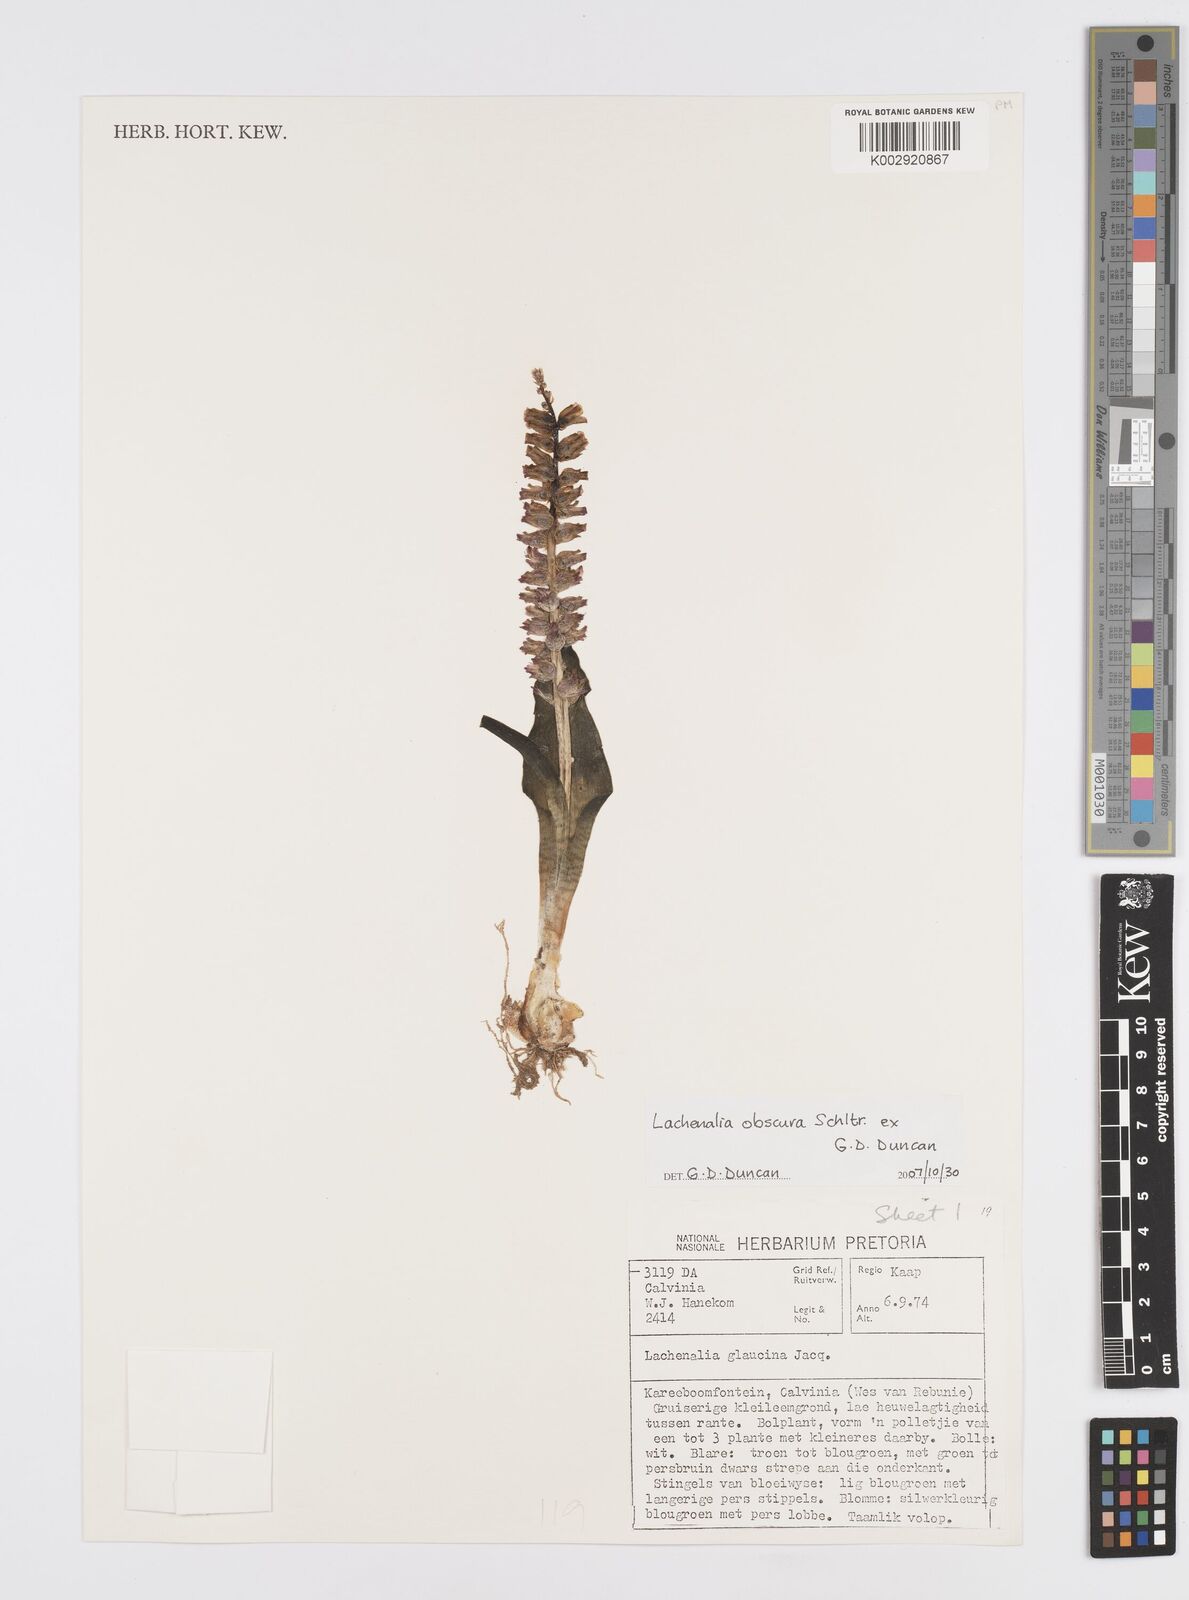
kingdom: Plantae
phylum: Tracheophyta
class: Liliopsida
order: Asparagales
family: Asparagaceae
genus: Lachenalia
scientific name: Lachenalia obscura
